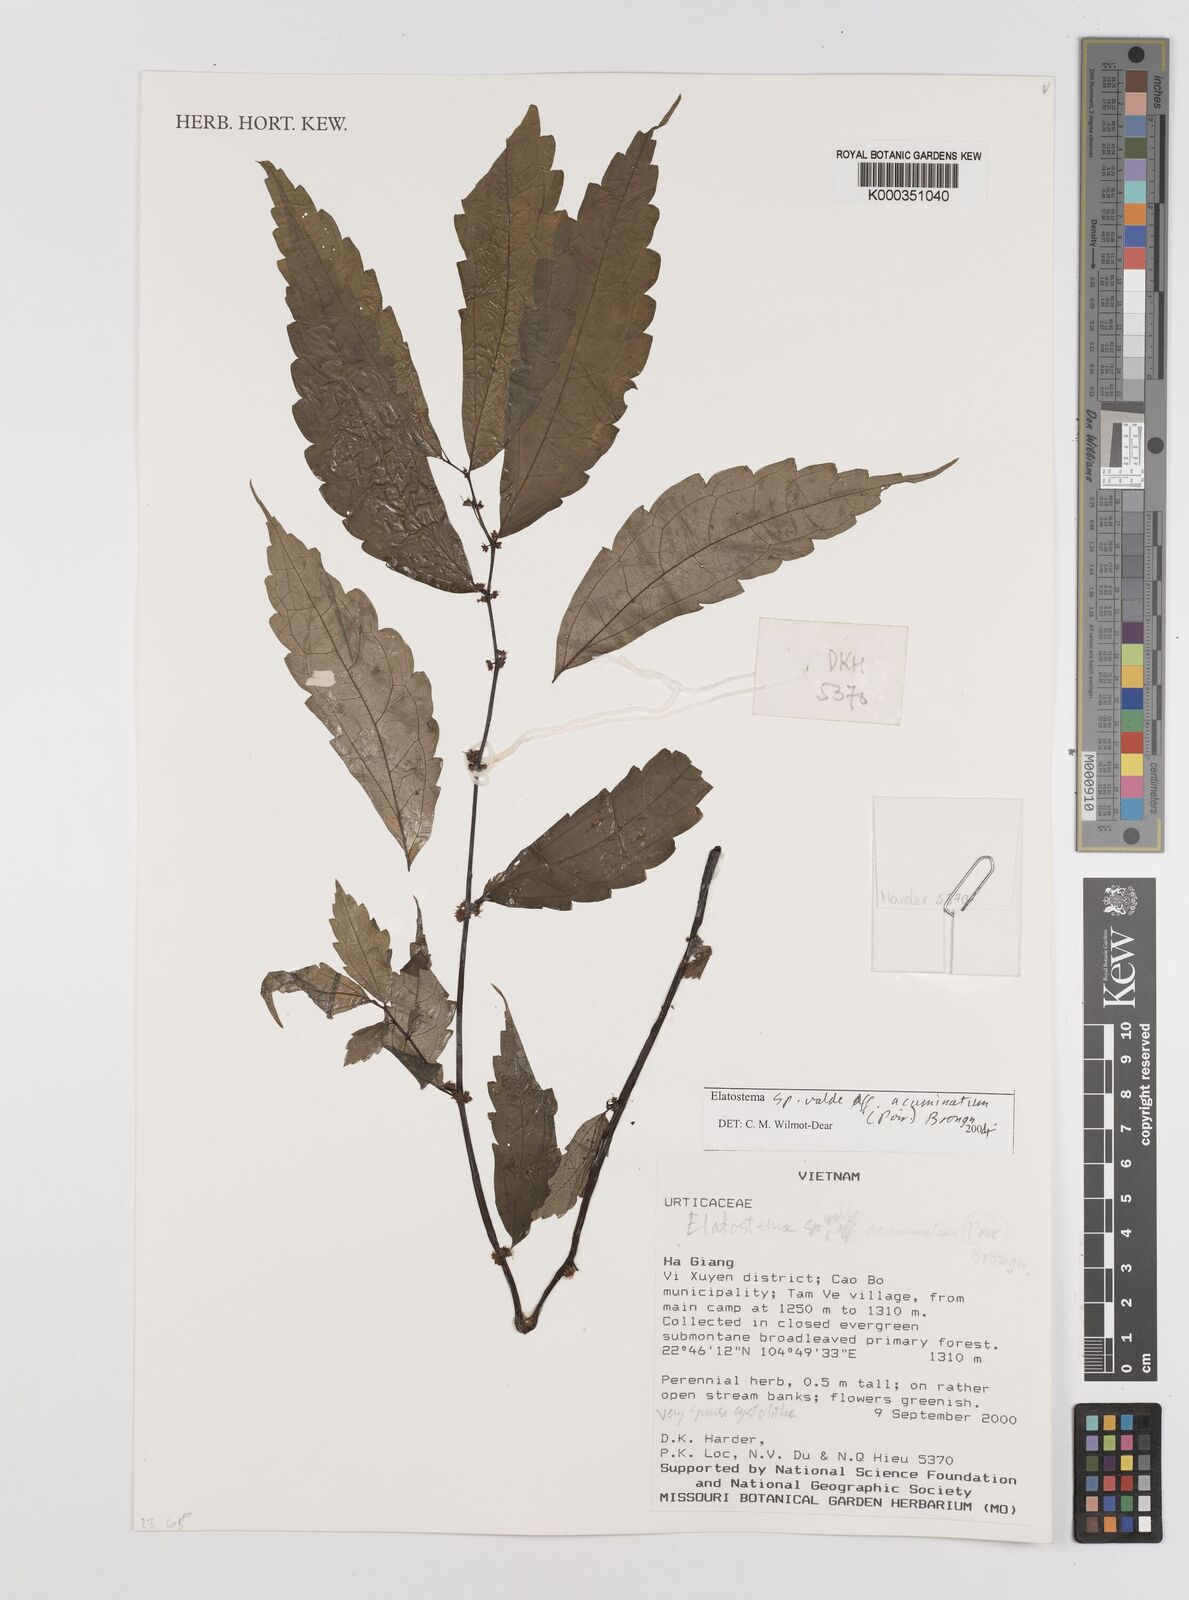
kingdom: Plantae
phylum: Tracheophyta
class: Magnoliopsida
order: Rosales
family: Urticaceae
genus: Elatostema
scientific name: Elatostema
